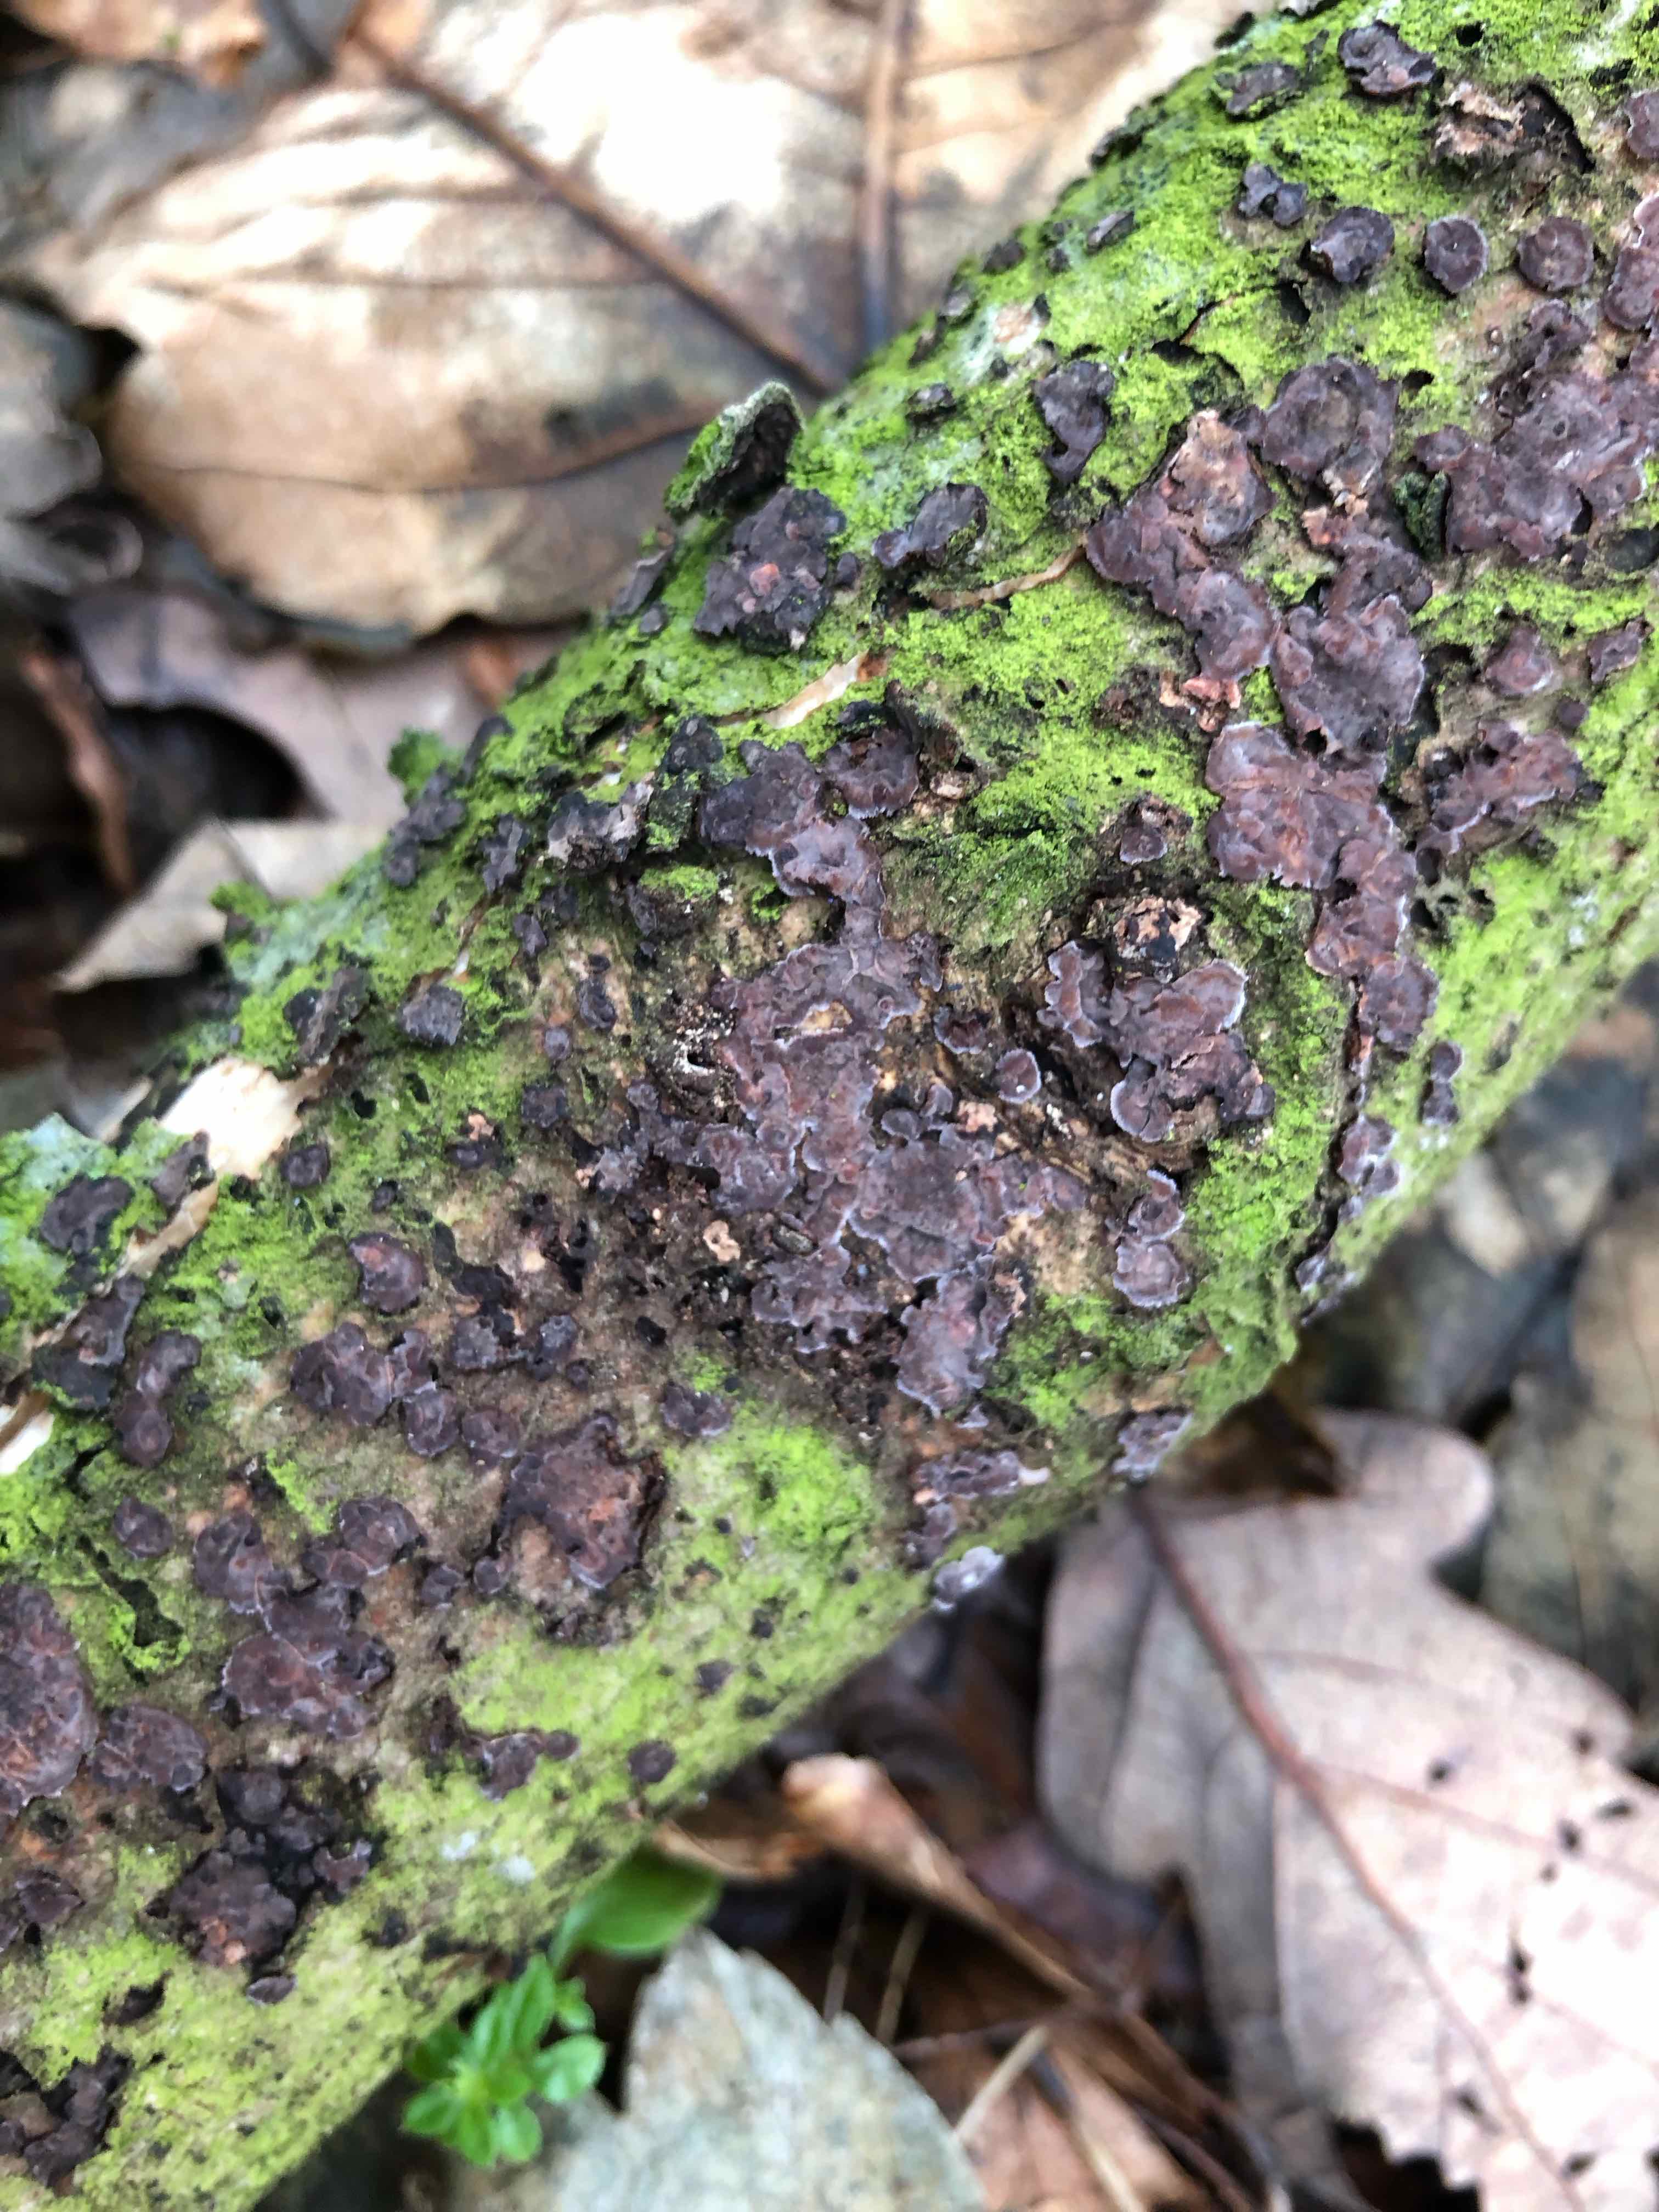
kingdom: Fungi
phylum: Basidiomycota
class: Agaricomycetes
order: Russulales
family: Peniophoraceae
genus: Peniophora
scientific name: Peniophora quercina
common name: ege-voksskind
